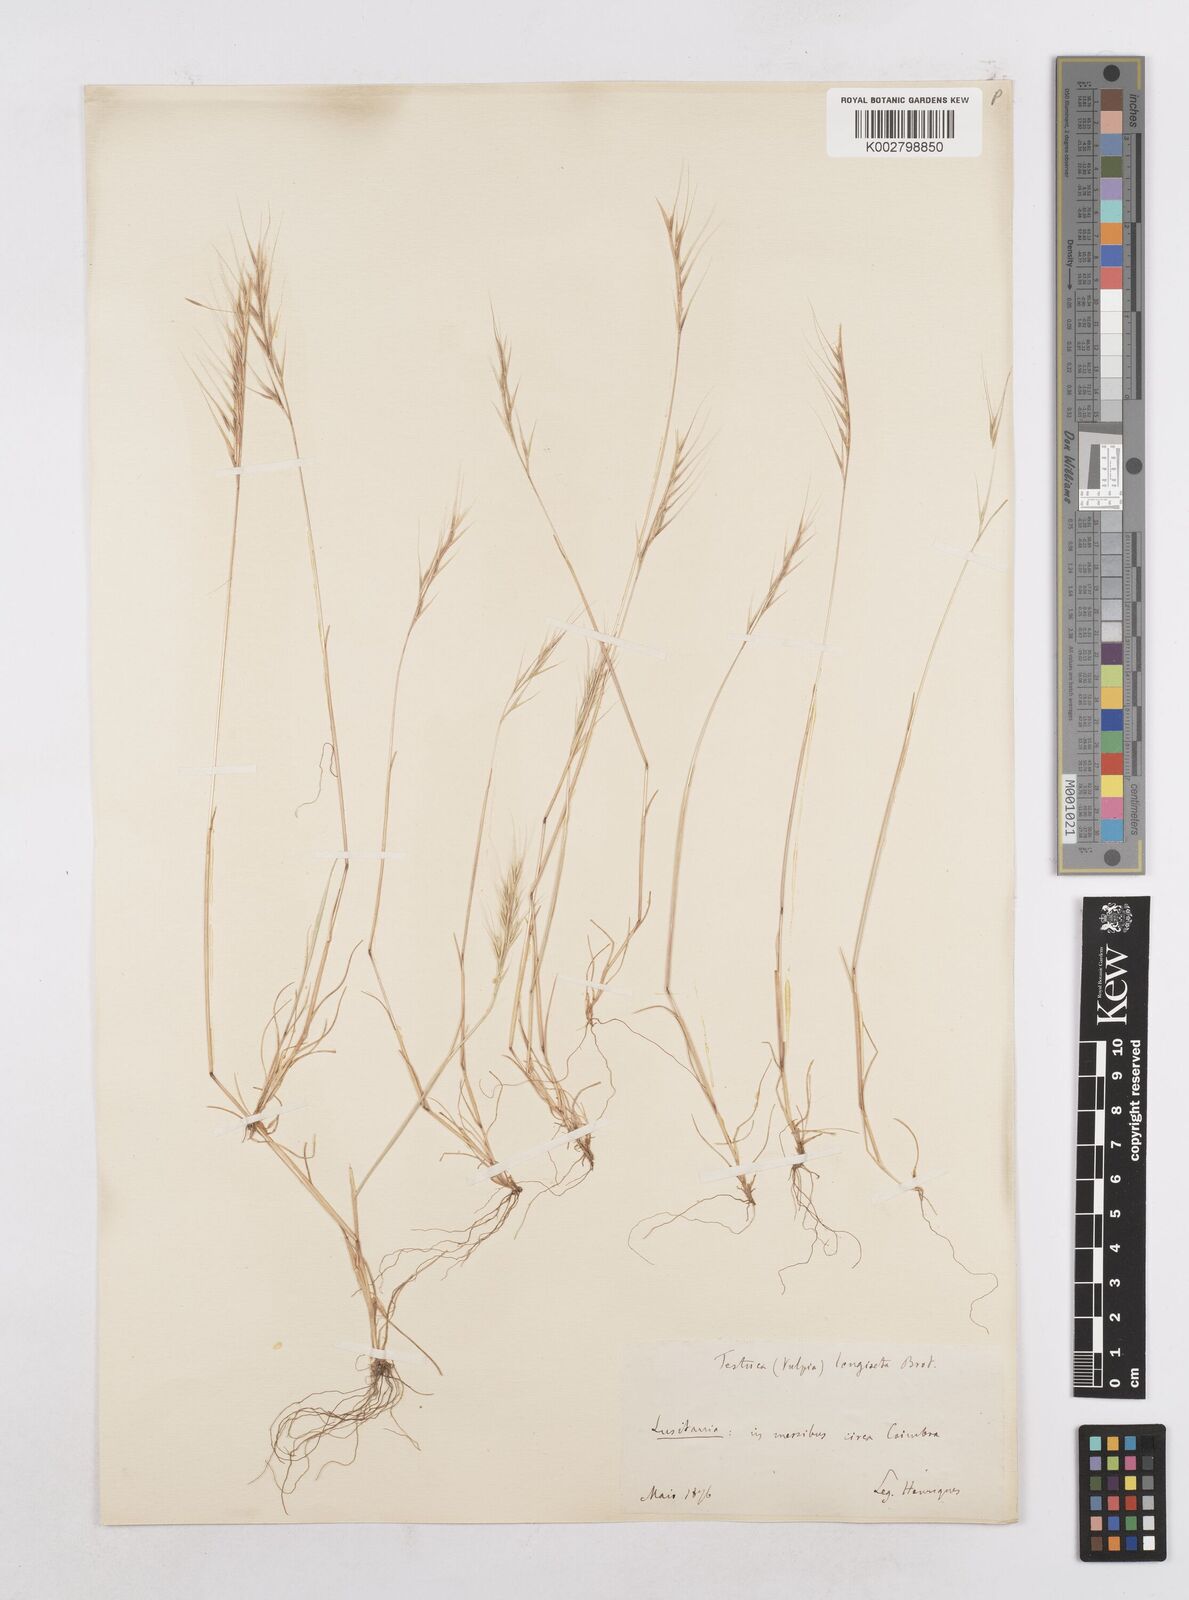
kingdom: Plantae
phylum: Tracheophyta
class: Liliopsida
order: Poales
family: Poaceae
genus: Festuca
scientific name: Festuca membranacea
